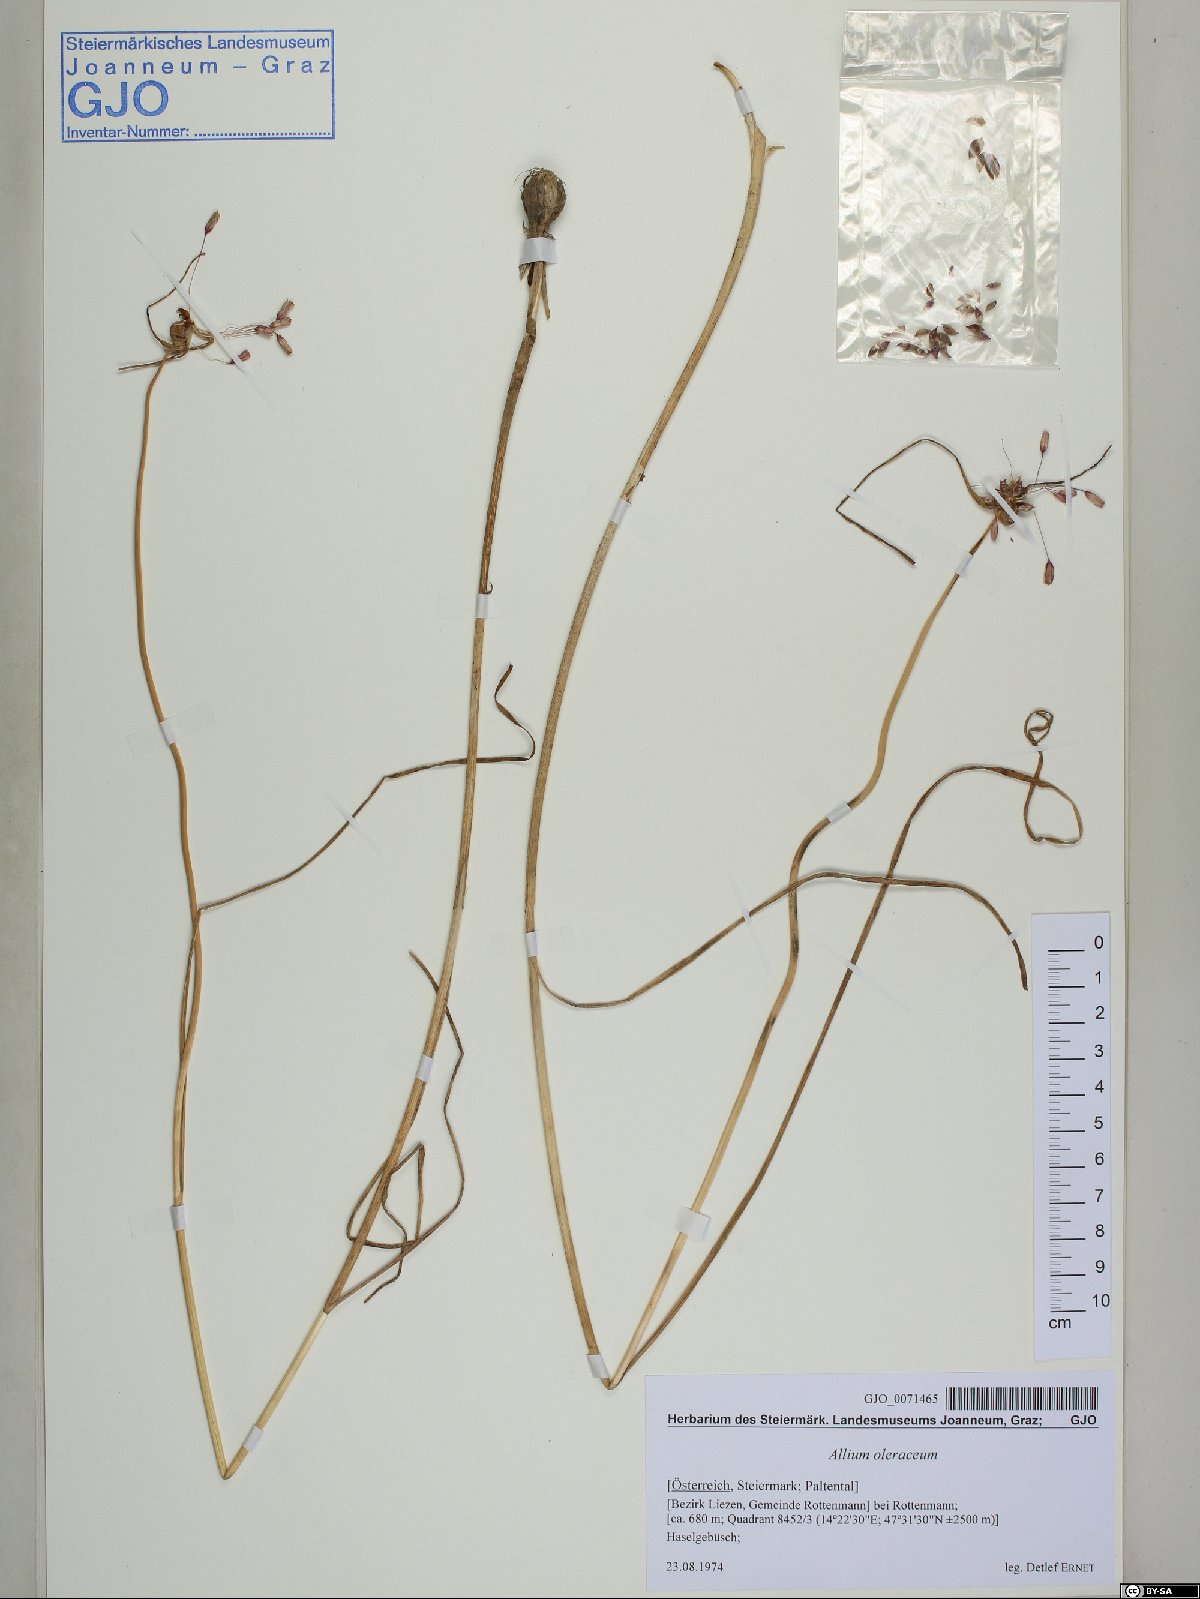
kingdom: Plantae
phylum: Tracheophyta
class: Liliopsida
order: Asparagales
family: Amaryllidaceae
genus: Allium
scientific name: Allium oleraceum
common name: Field garlic
